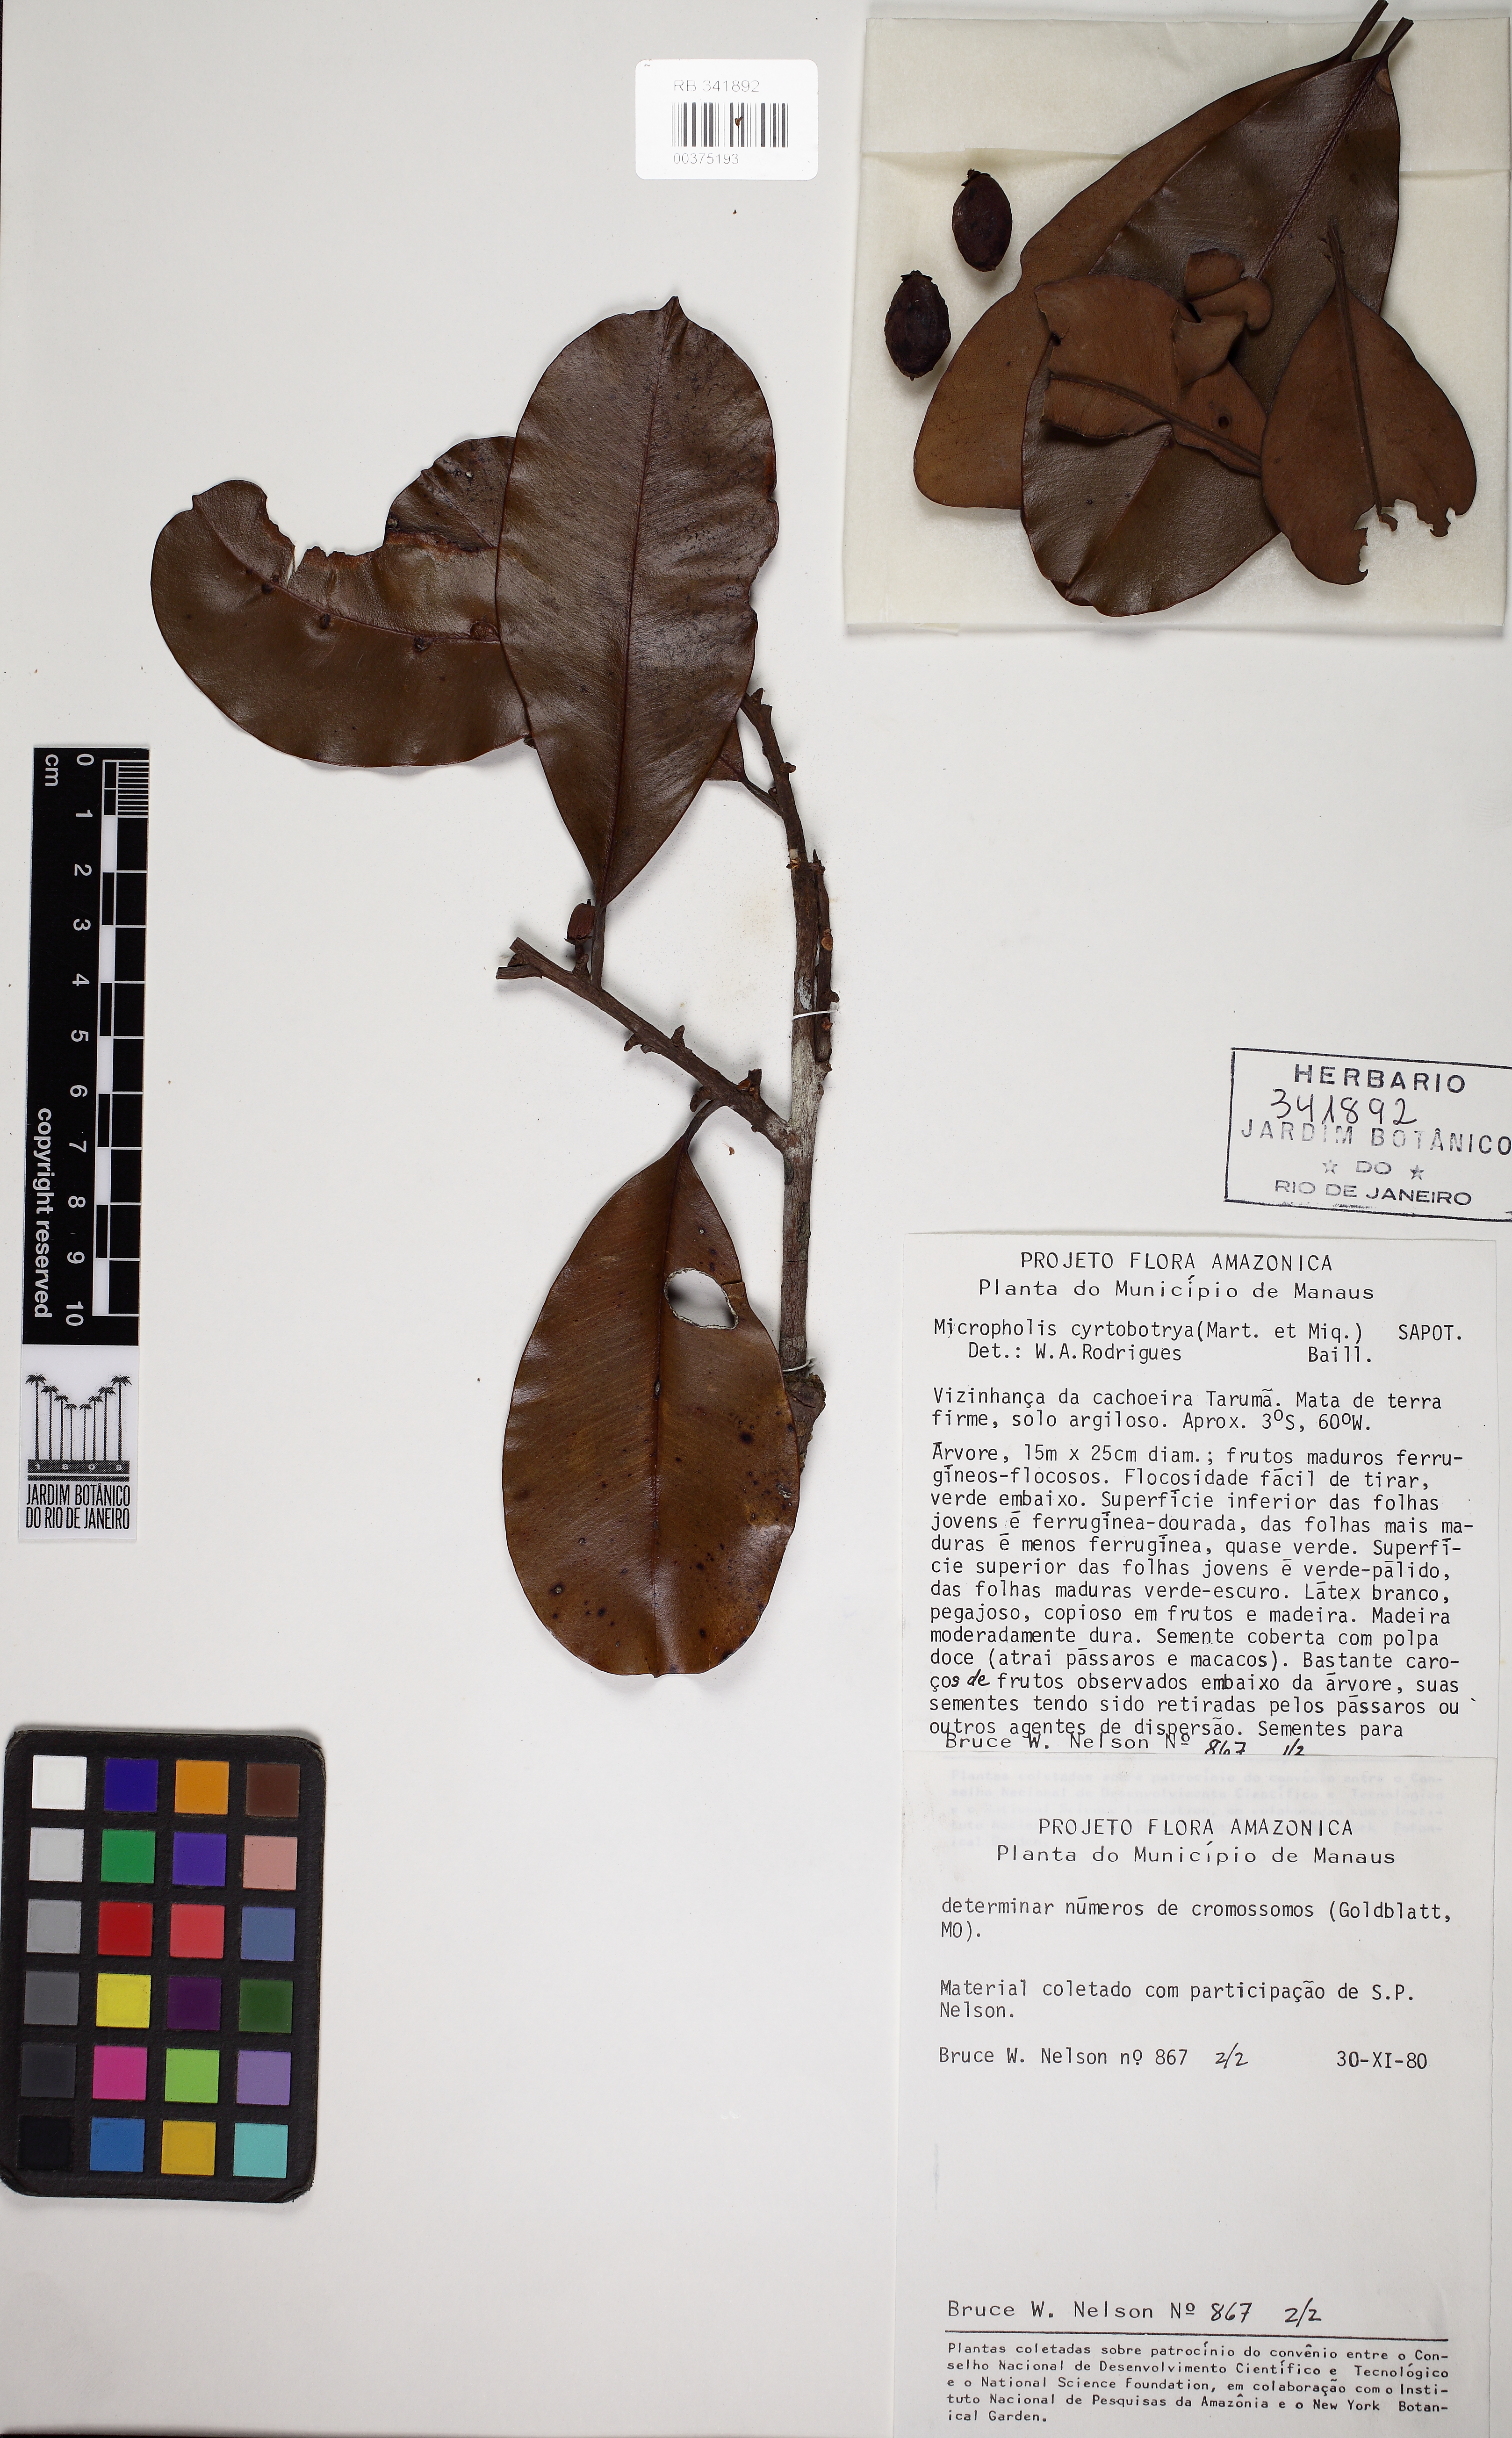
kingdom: Plantae
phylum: Tracheophyta
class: Magnoliopsida
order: Ericales
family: Sapotaceae
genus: Micropholis
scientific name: Micropholis guyanensis
